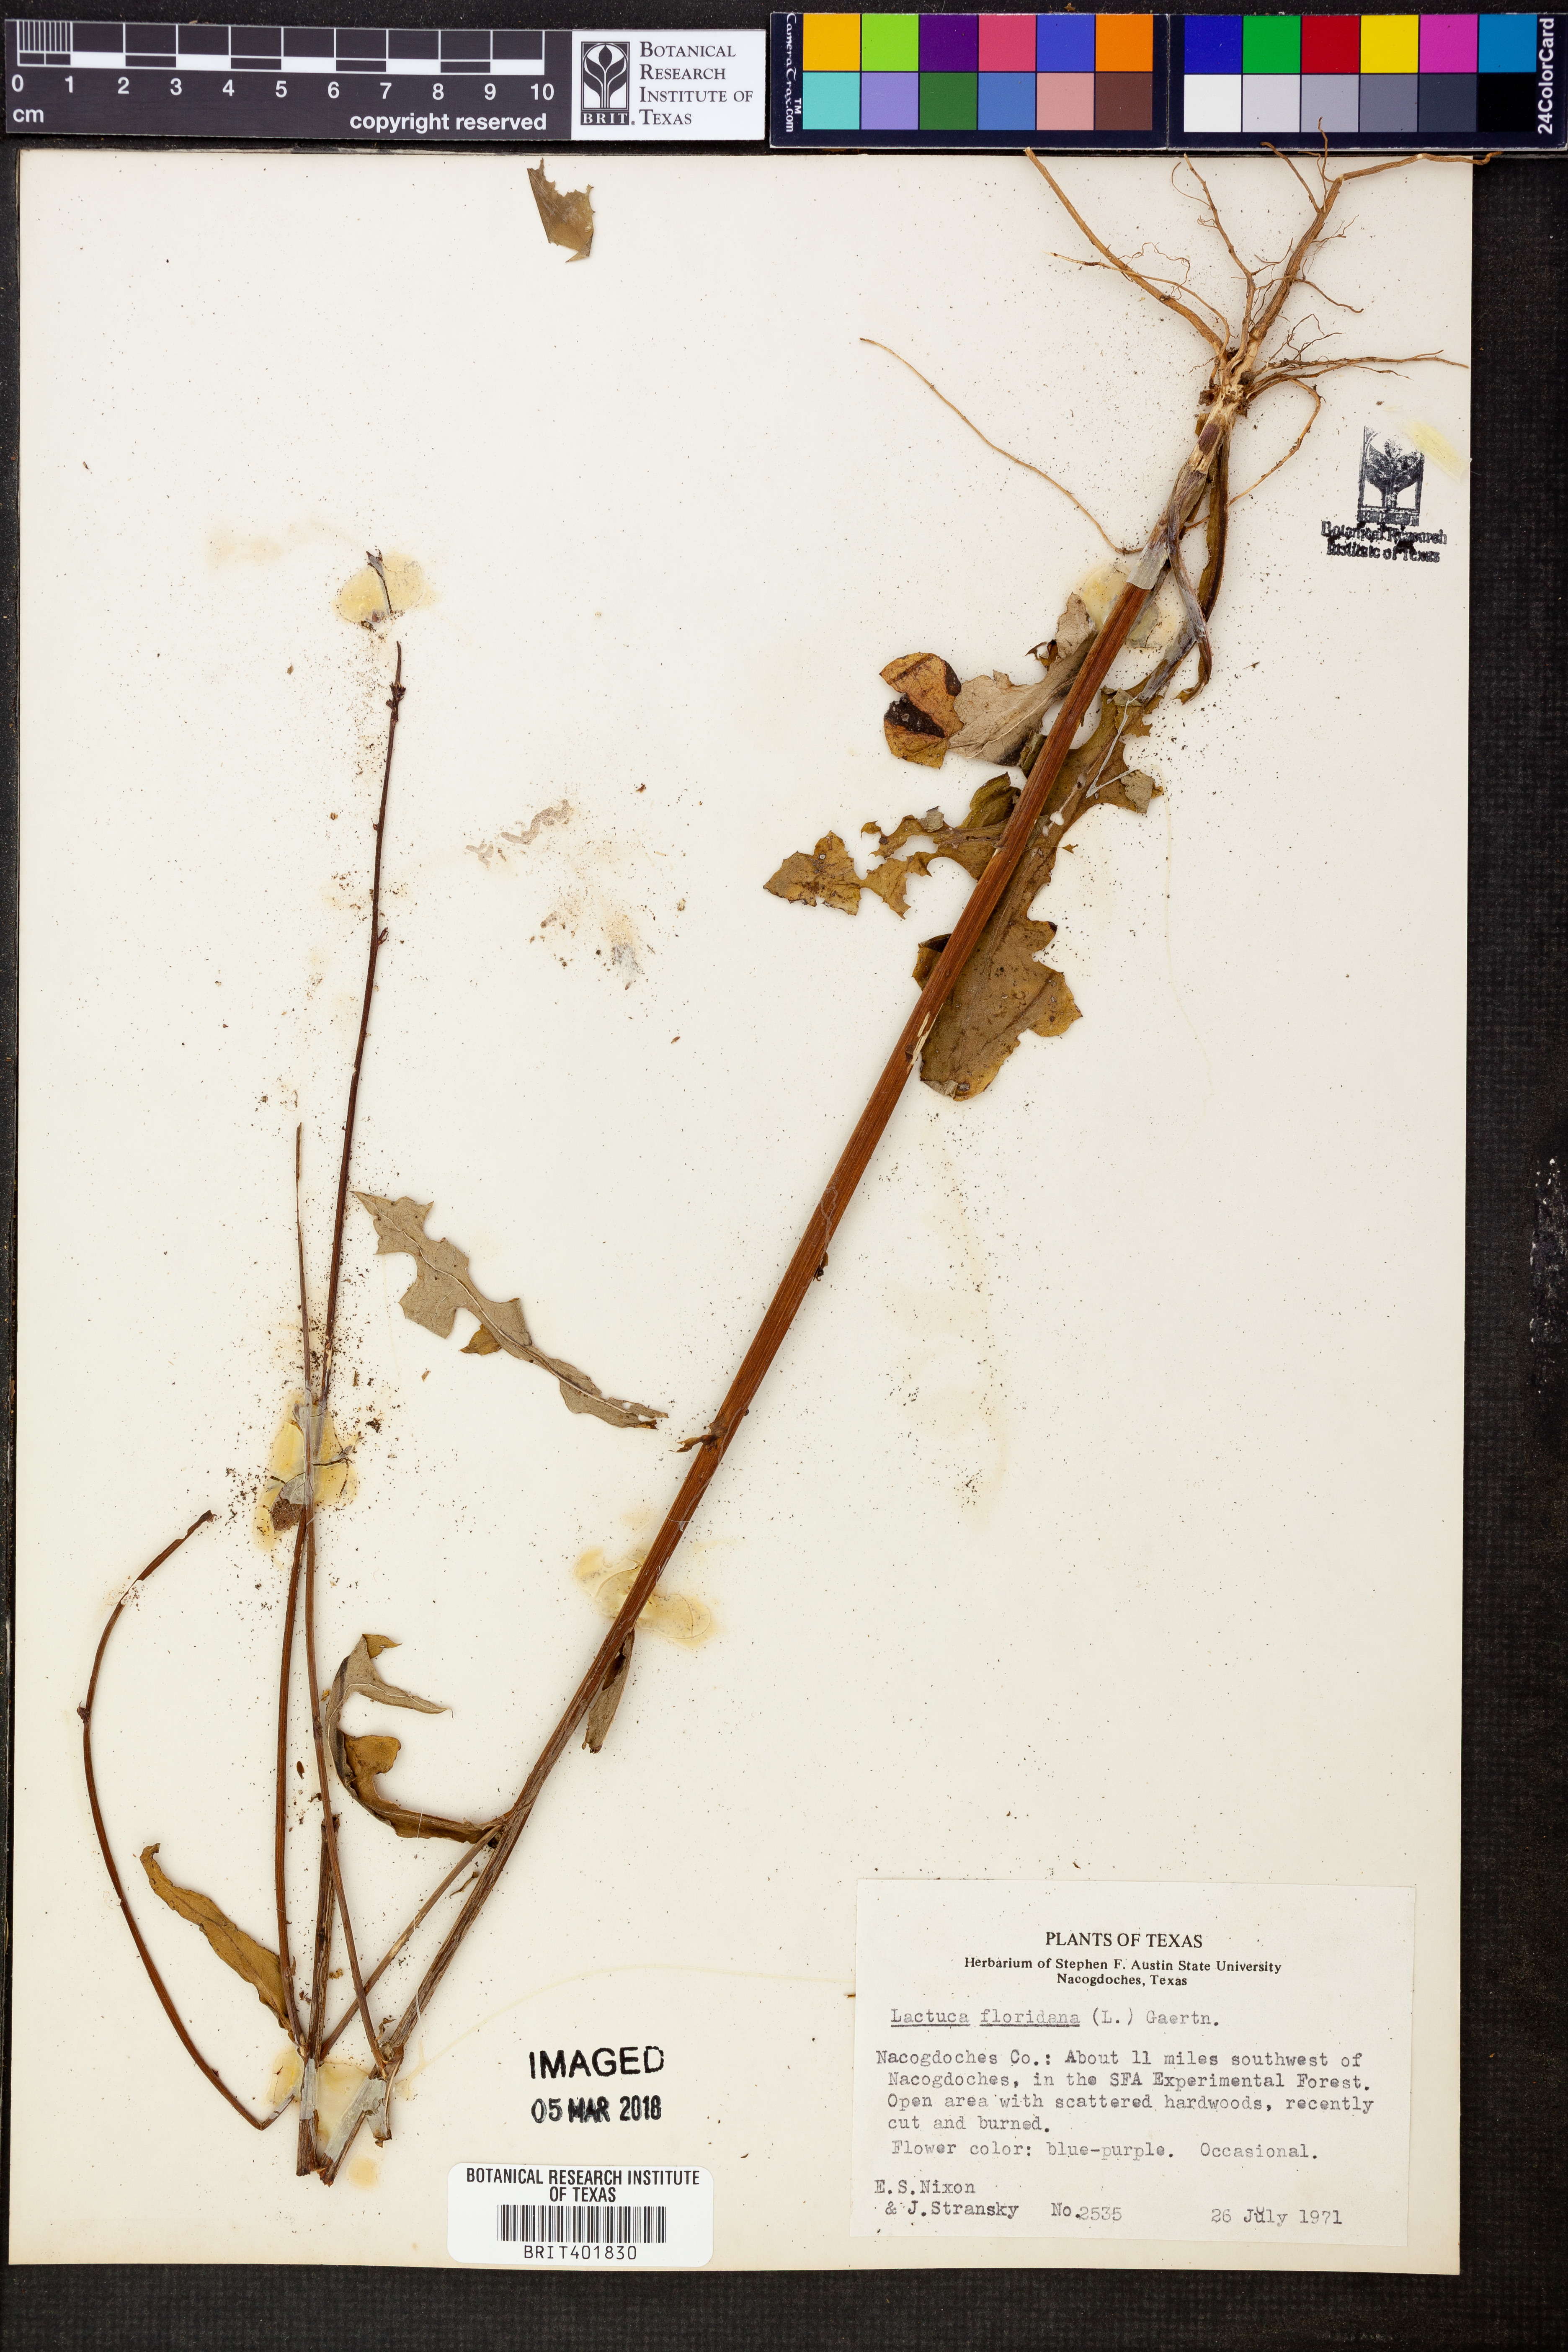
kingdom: Plantae
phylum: Tracheophyta
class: Magnoliopsida
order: Asterales
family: Asteraceae
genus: Lactuca
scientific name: Lactuca floridana
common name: Woodland lettuce
